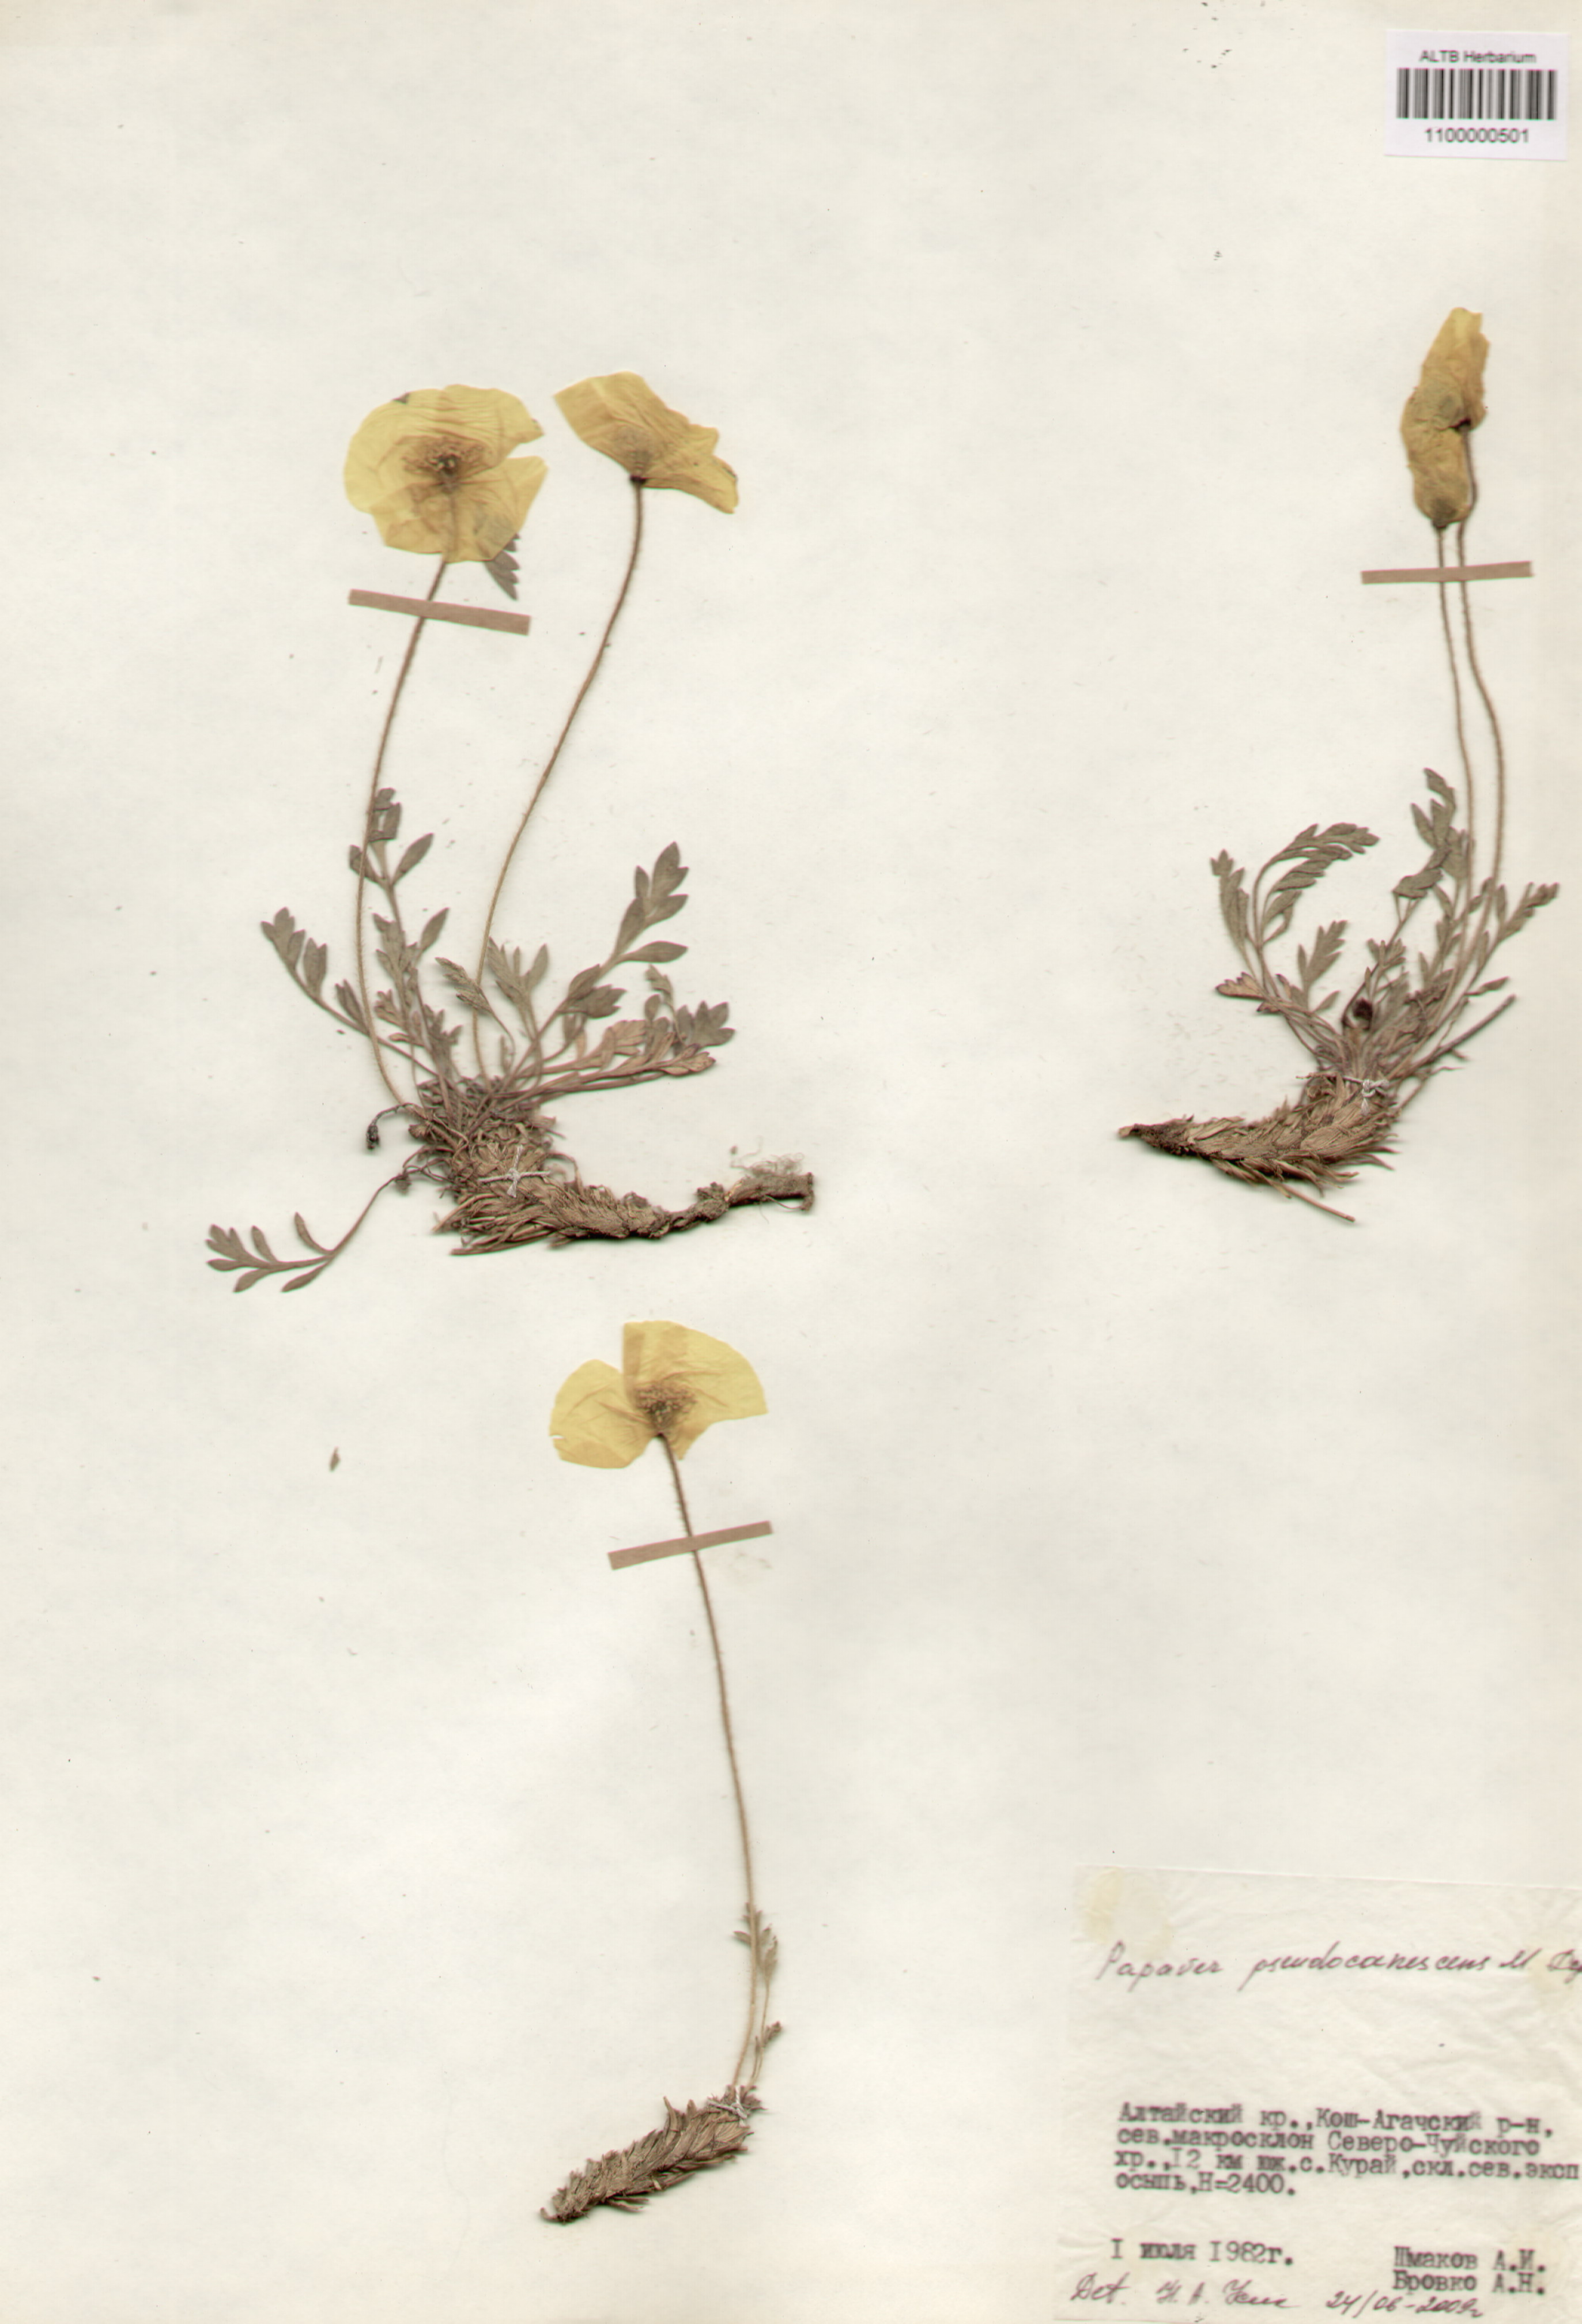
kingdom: Plantae
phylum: Tracheophyta
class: Magnoliopsida
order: Ranunculales
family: Papaveraceae
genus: Papaver
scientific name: Papaver canescens
